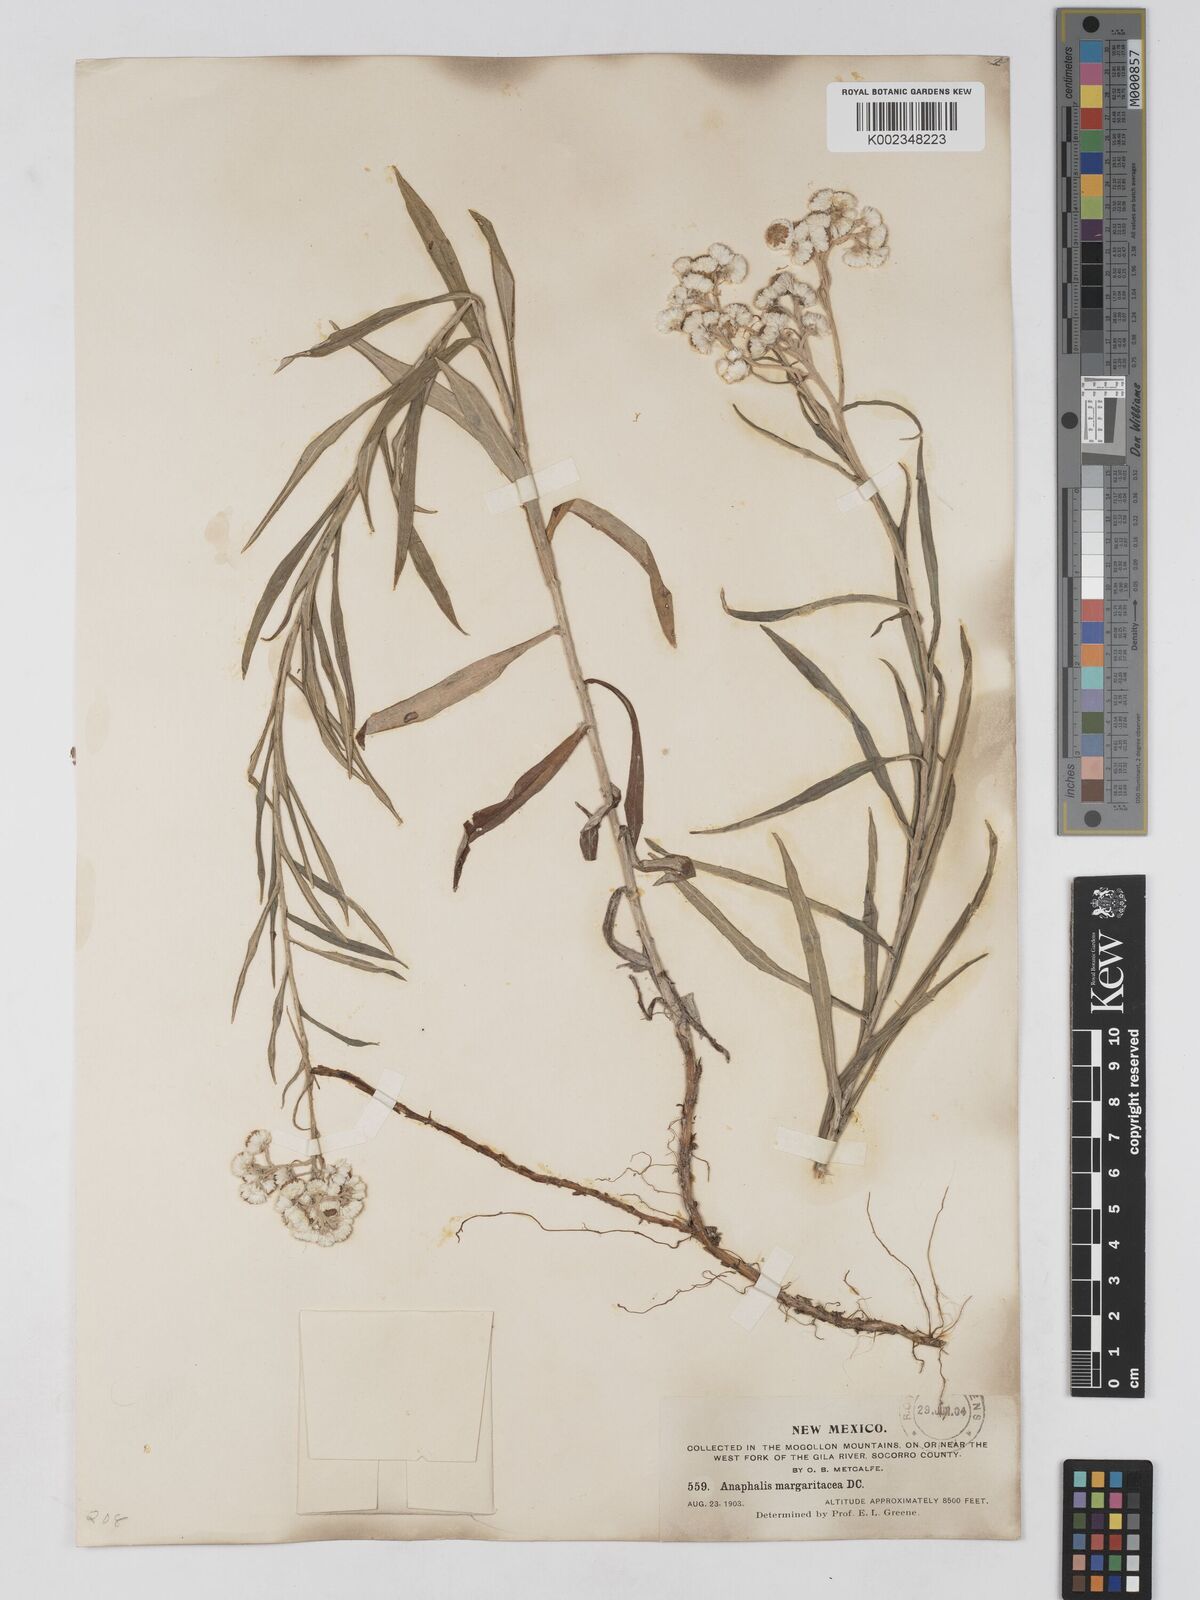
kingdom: Plantae
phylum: Tracheophyta
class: Magnoliopsida
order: Asterales
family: Asteraceae
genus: Anaphalis
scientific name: Anaphalis margaritacea
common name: Pearly everlasting
